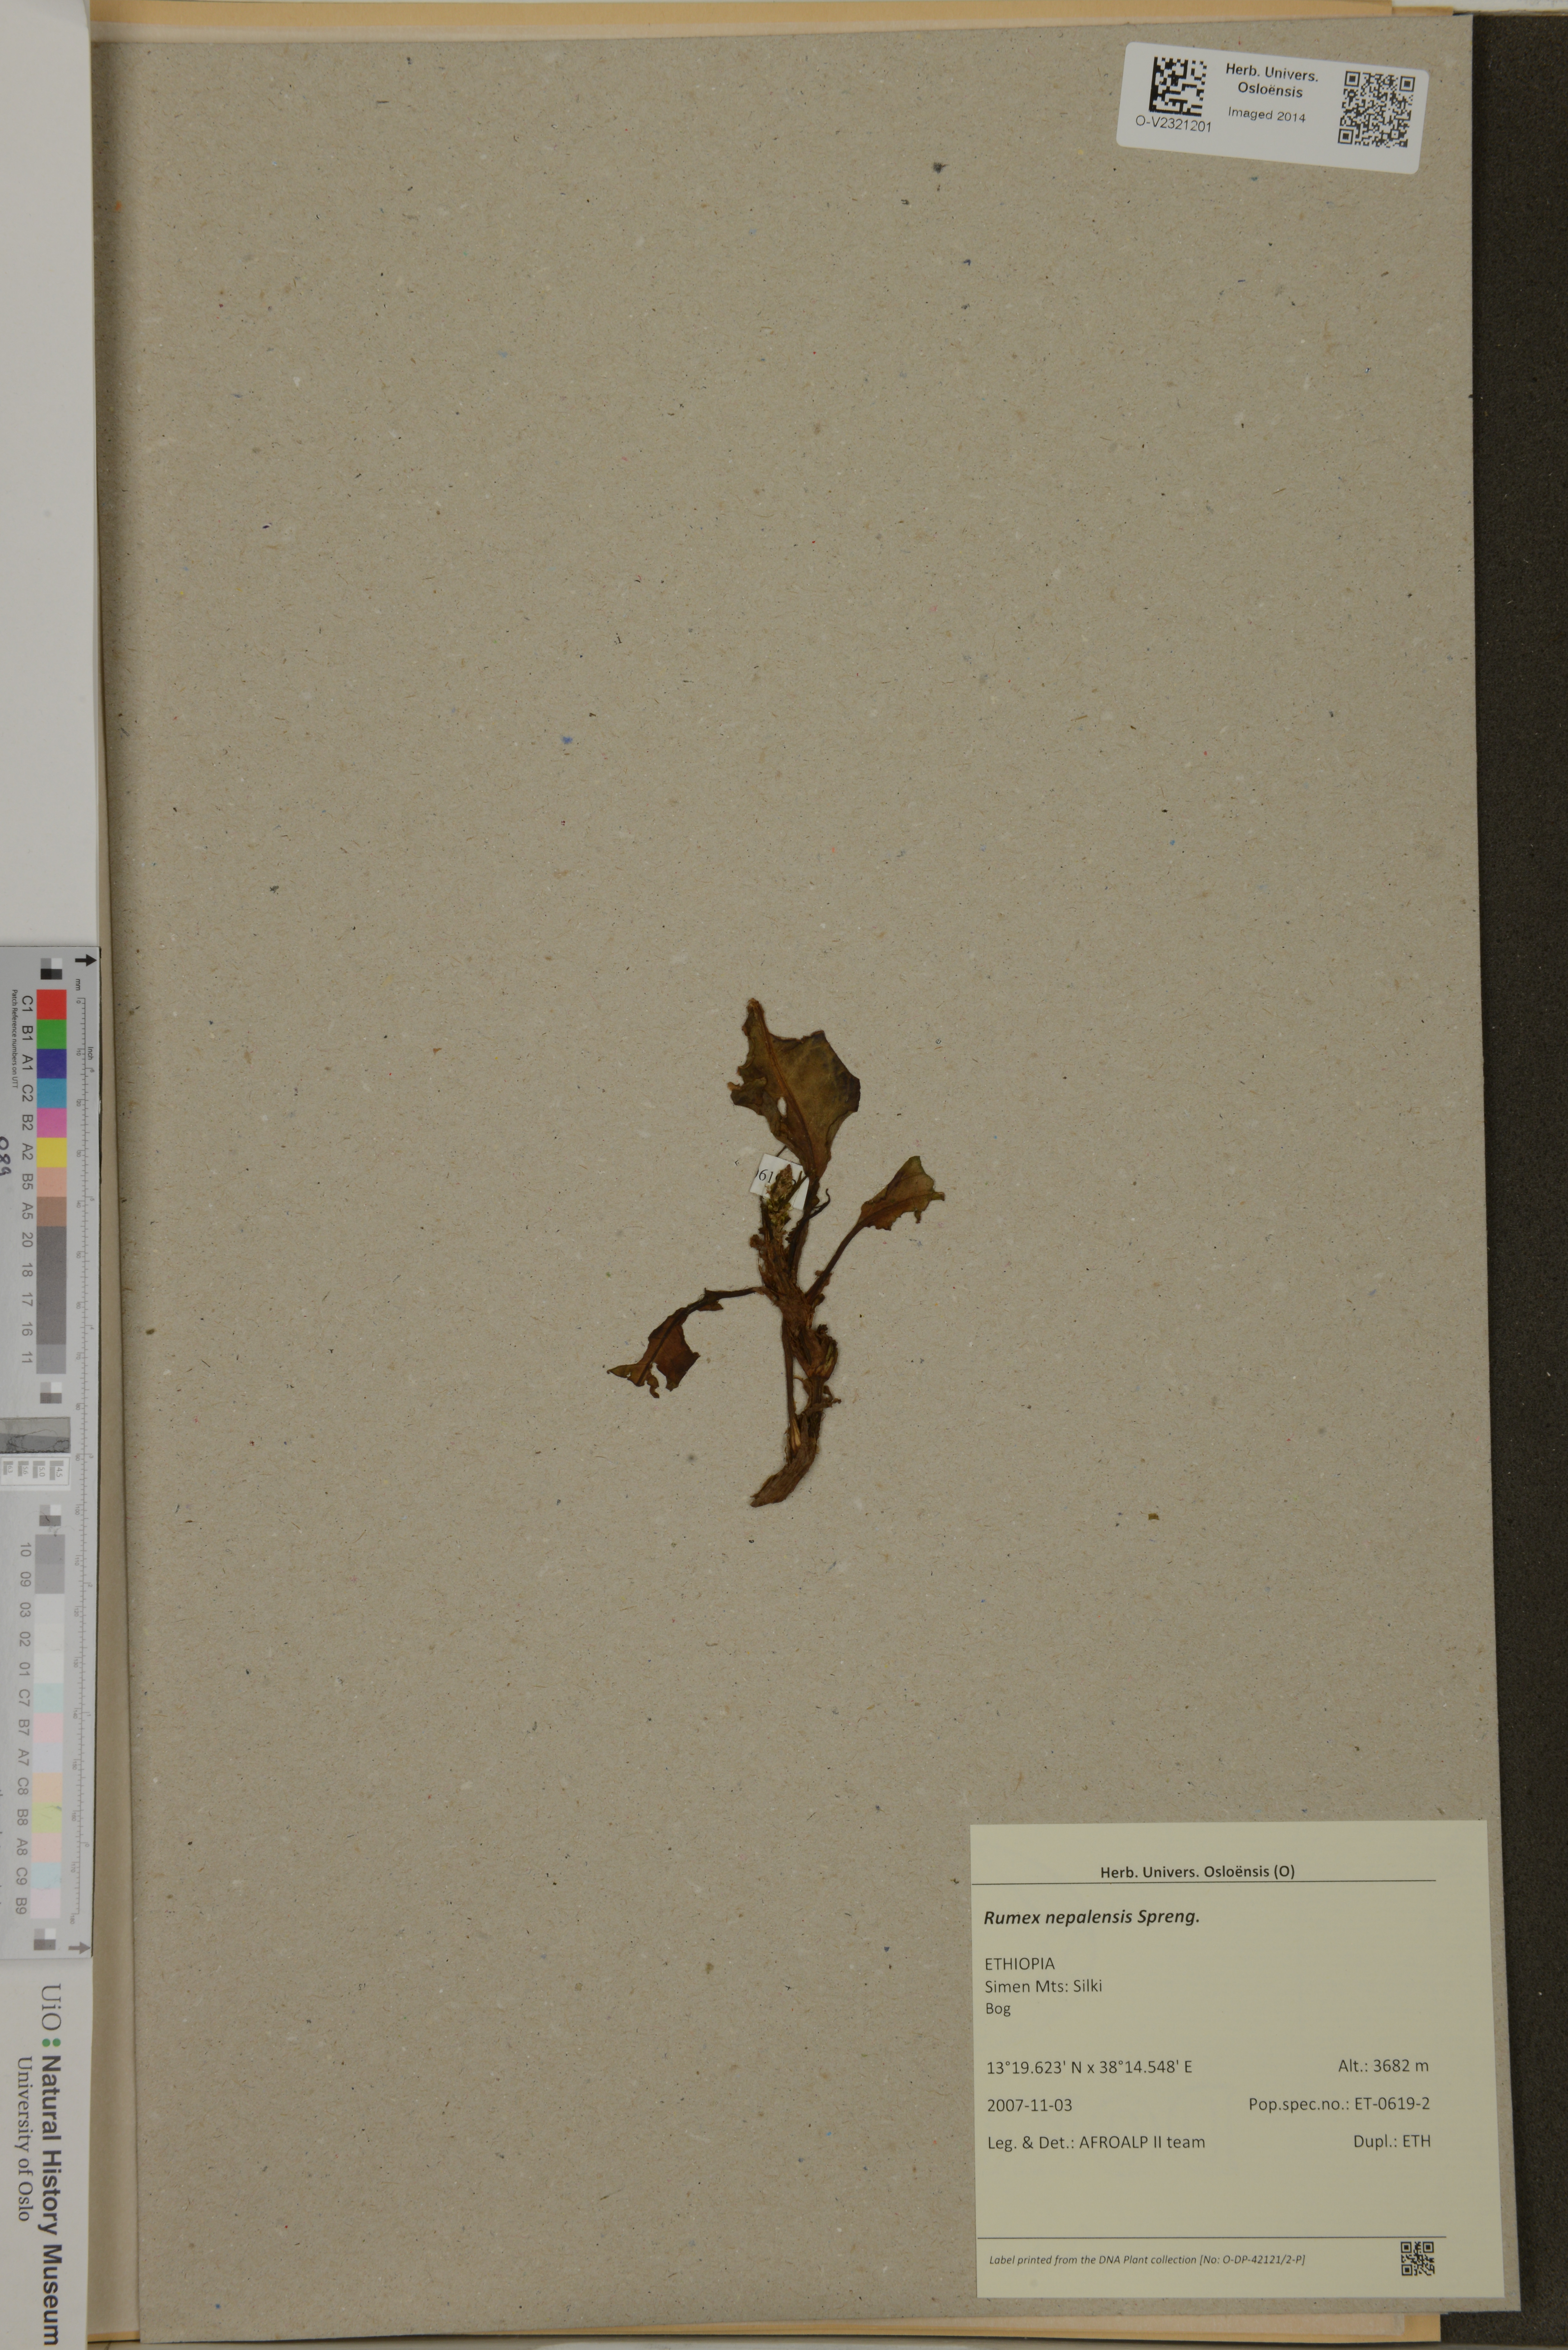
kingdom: Plantae
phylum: Tracheophyta
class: Magnoliopsida
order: Caryophyllales
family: Polygonaceae
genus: Rumex
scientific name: Rumex nepalensis
